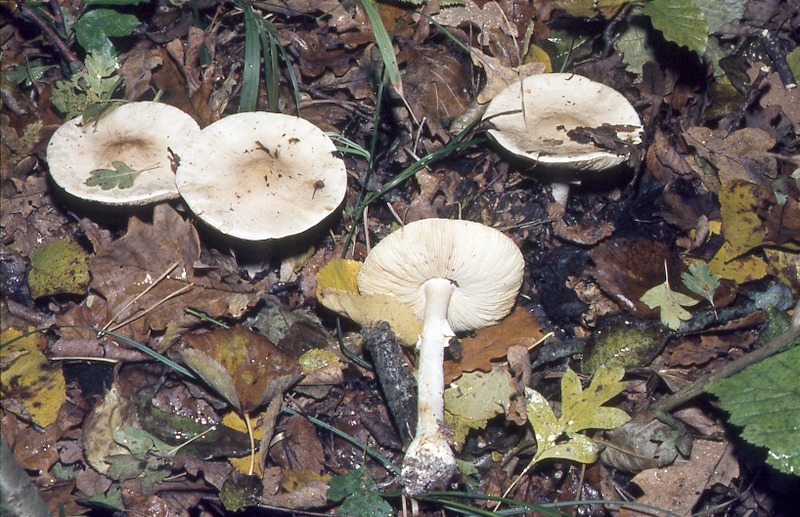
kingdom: Fungi
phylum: Basidiomycota
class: Agaricomycetes
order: Agaricales
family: Amanitaceae
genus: Limacellopsis
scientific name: Limacellopsis guttata
